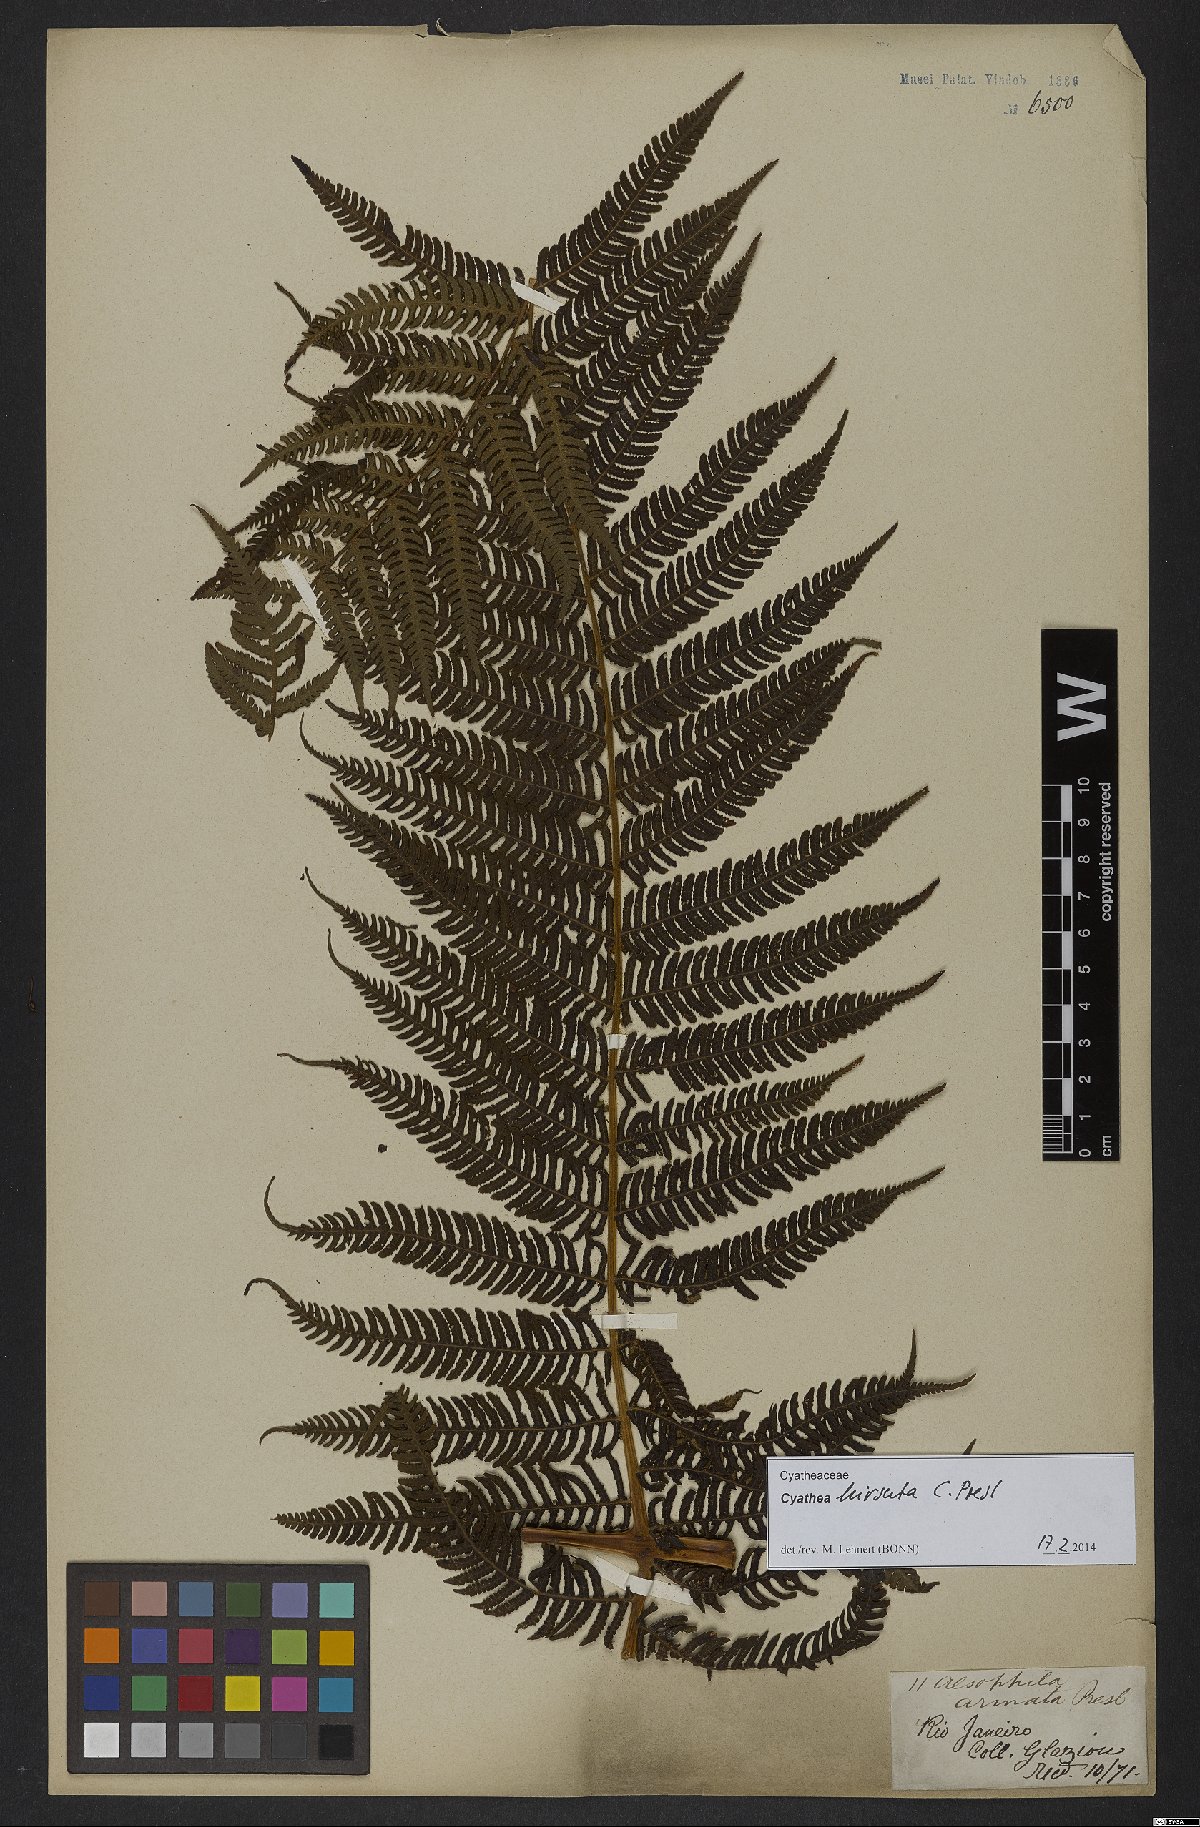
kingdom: Plantae
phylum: Tracheophyta
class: Polypodiopsida
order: Cyatheales
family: Cyatheaceae
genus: Cyathea
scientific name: Cyathea hirsuta
